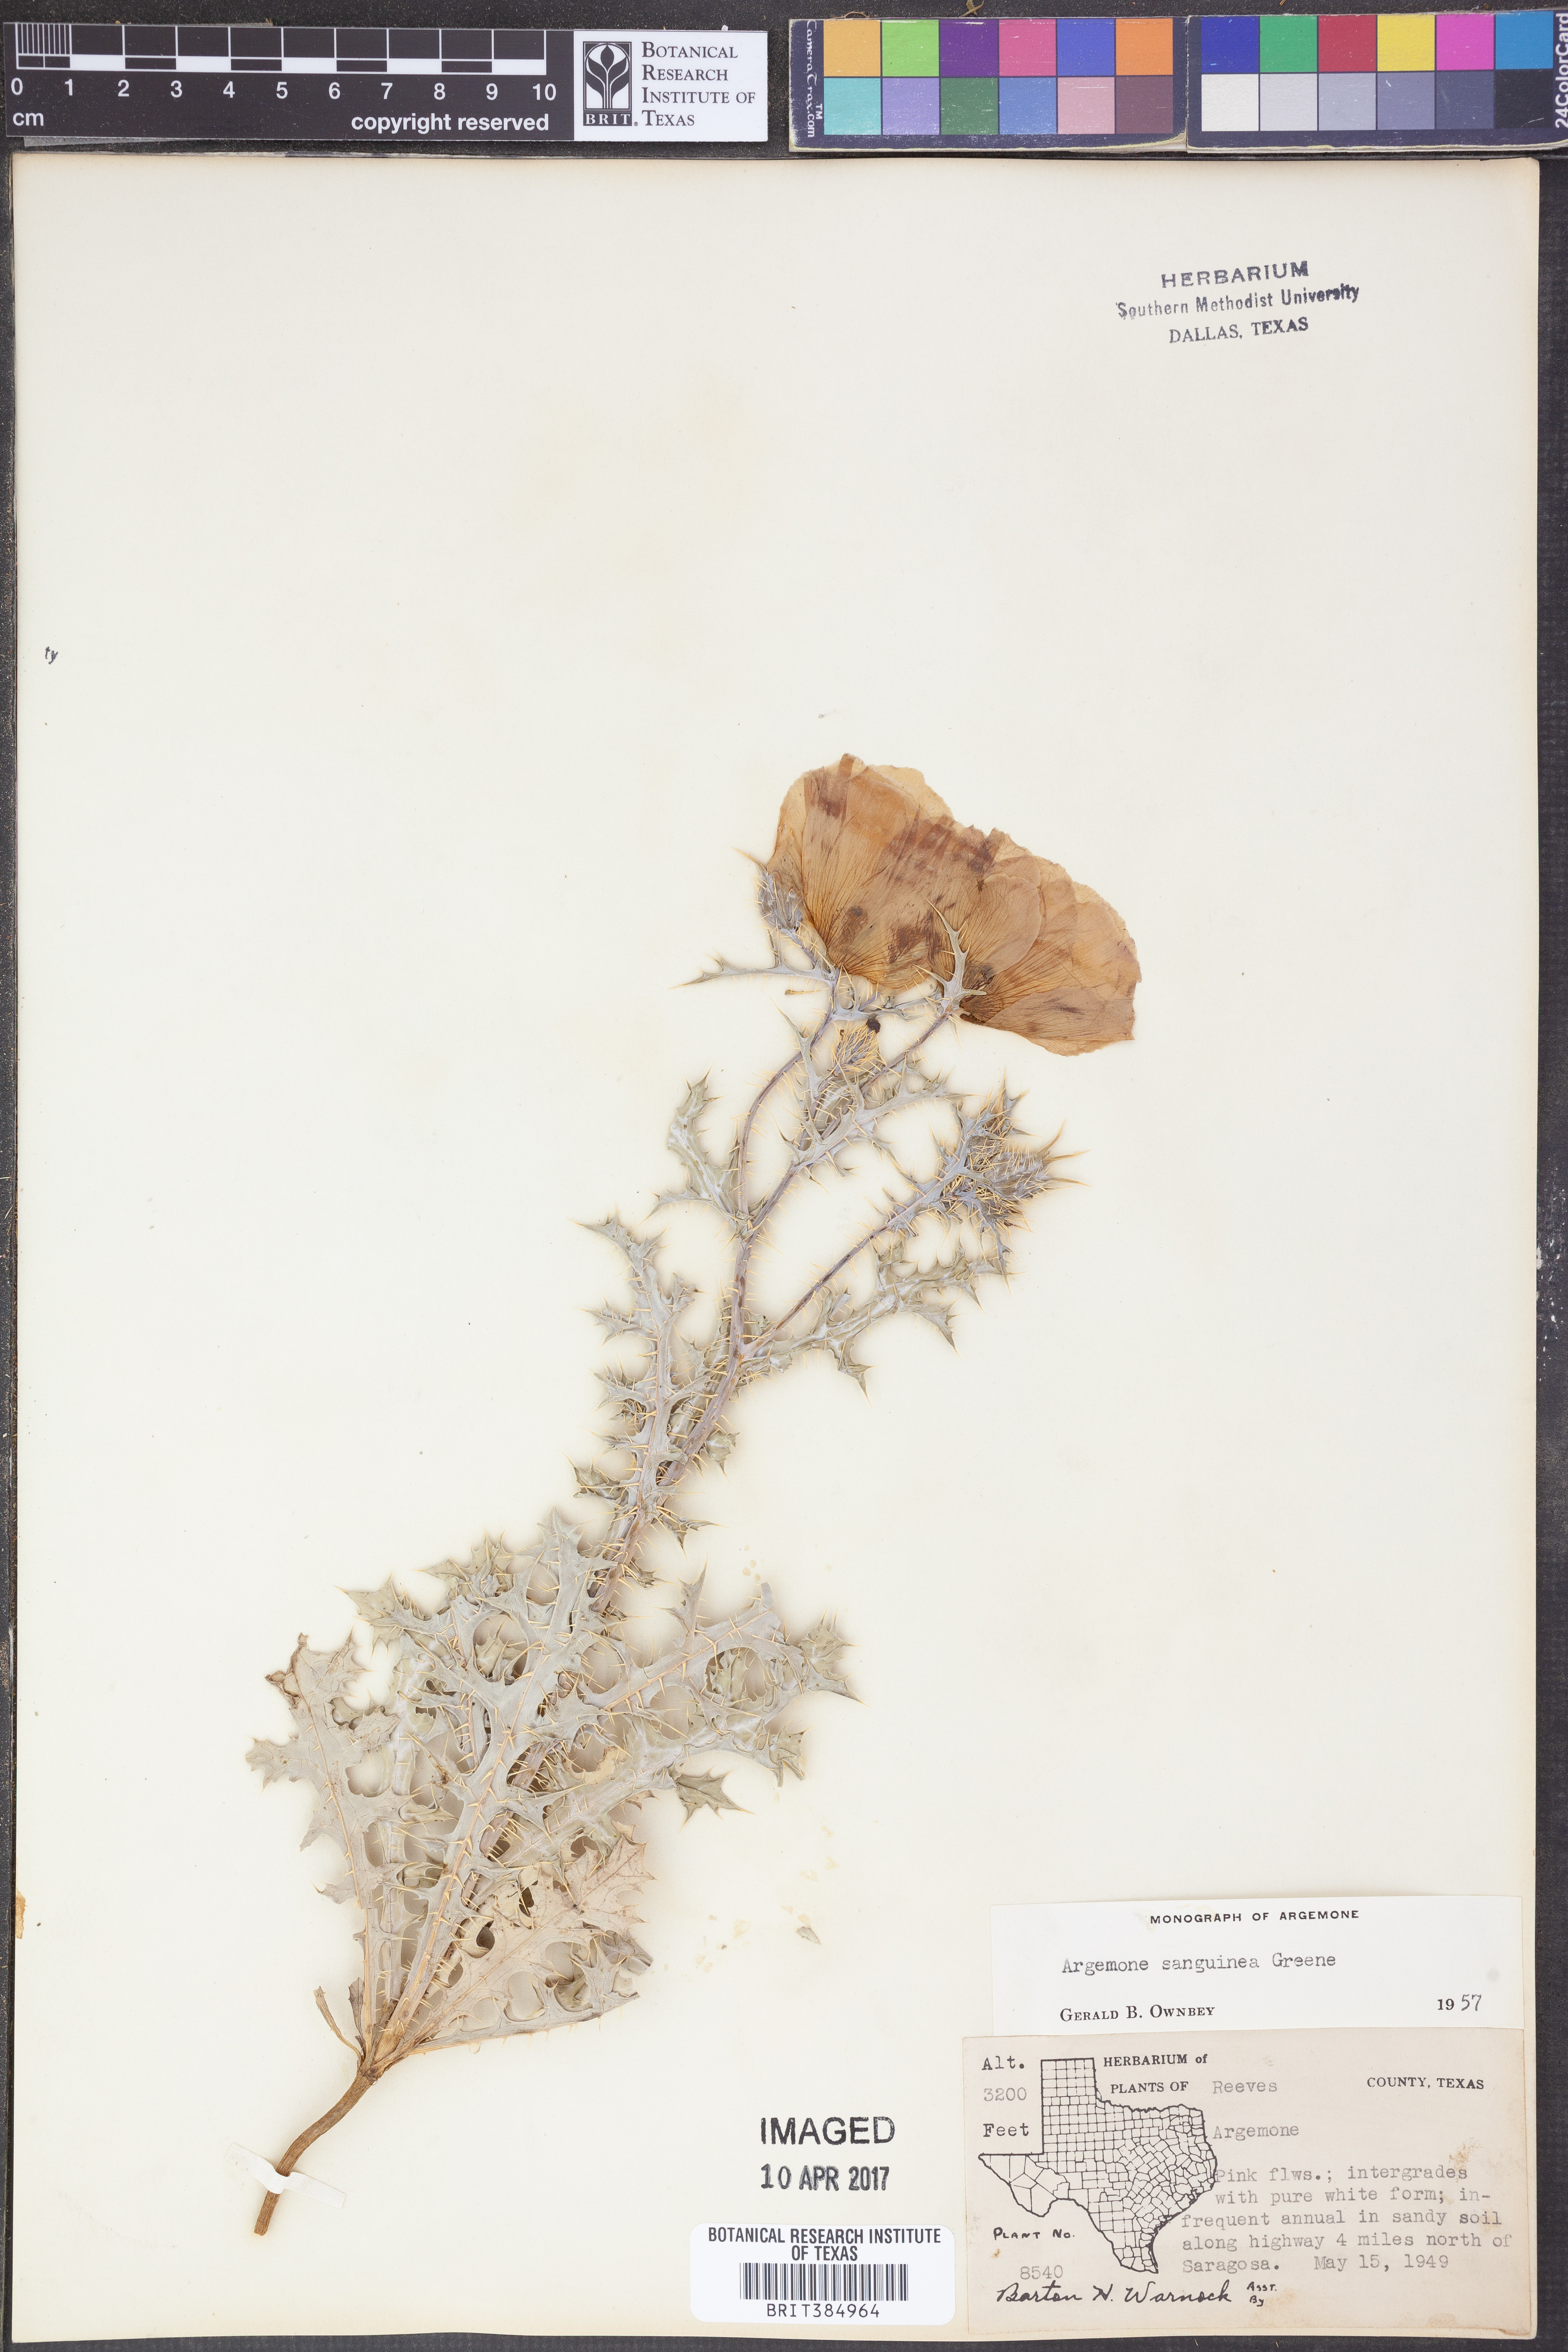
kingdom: Plantae
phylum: Tracheophyta
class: Magnoliopsida
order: Ranunculales
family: Papaveraceae
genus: Argemone
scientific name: Argemone sanguinea
